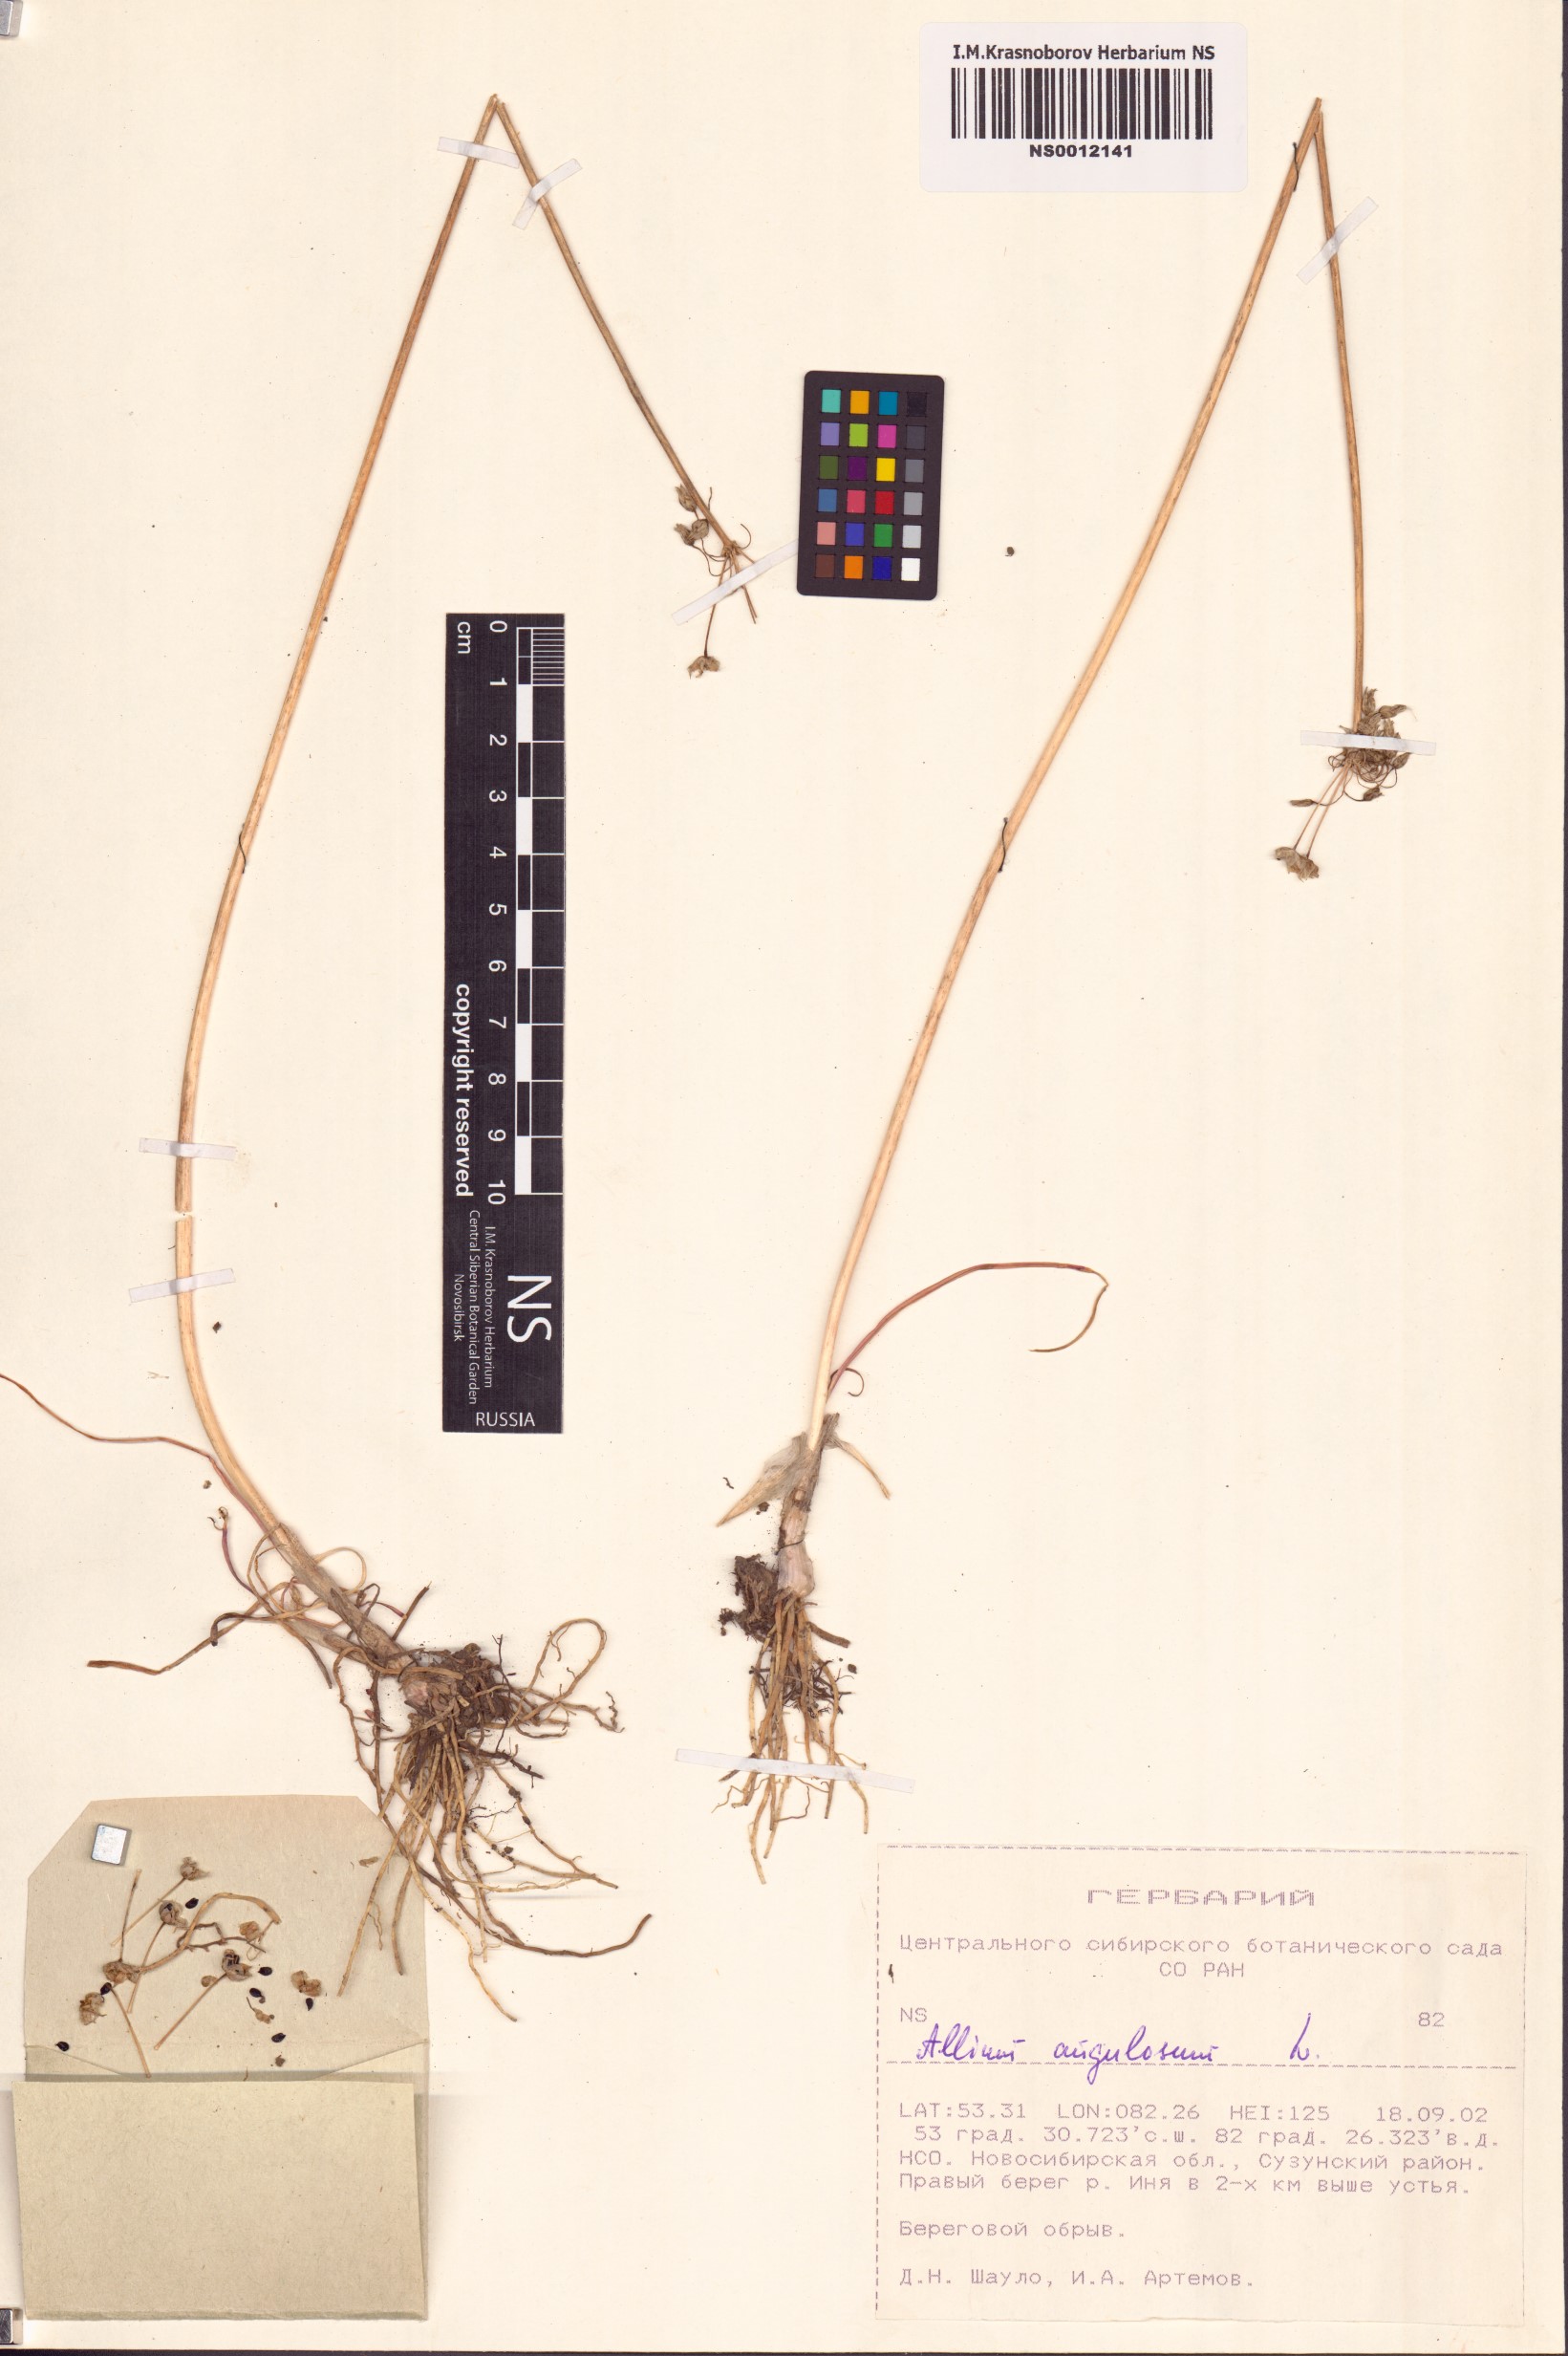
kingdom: Plantae
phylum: Tracheophyta
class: Liliopsida
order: Asparagales
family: Amaryllidaceae
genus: Allium
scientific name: Allium angulosum
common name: Mouse garlic
